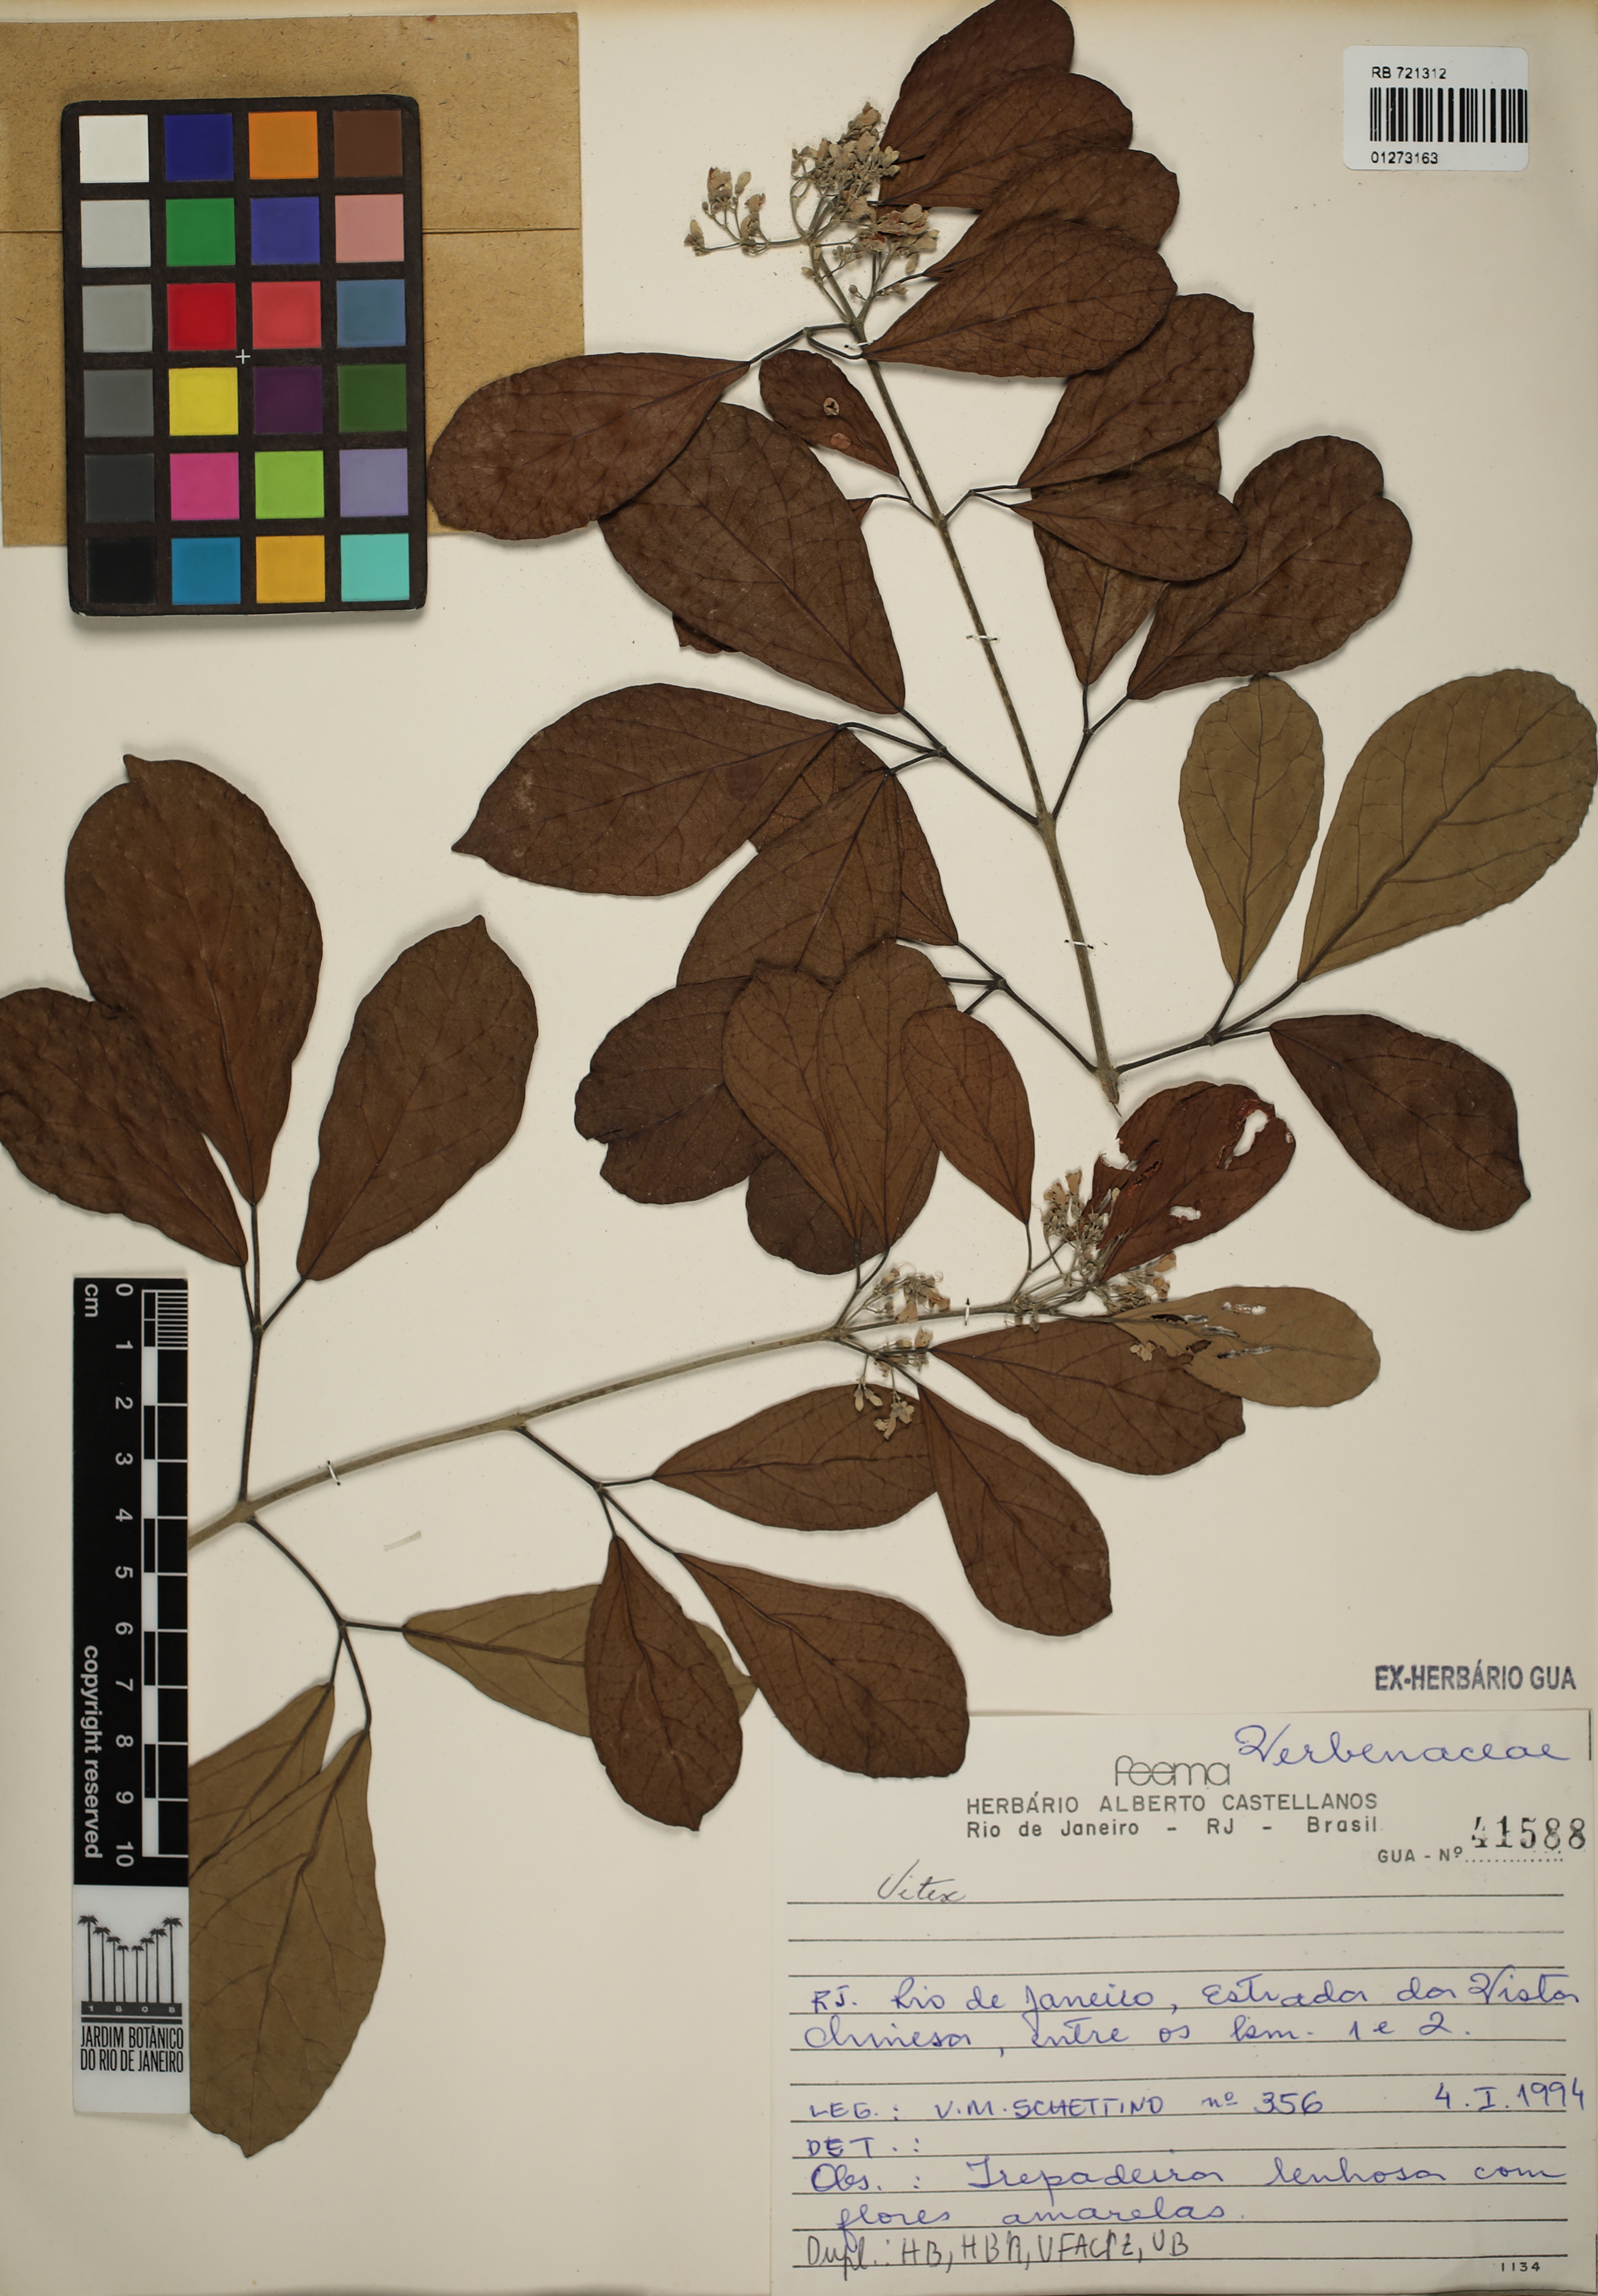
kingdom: Plantae
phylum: Tracheophyta
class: Magnoliopsida
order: Lamiales
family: Lamiaceae
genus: Vitex
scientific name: Vitex
